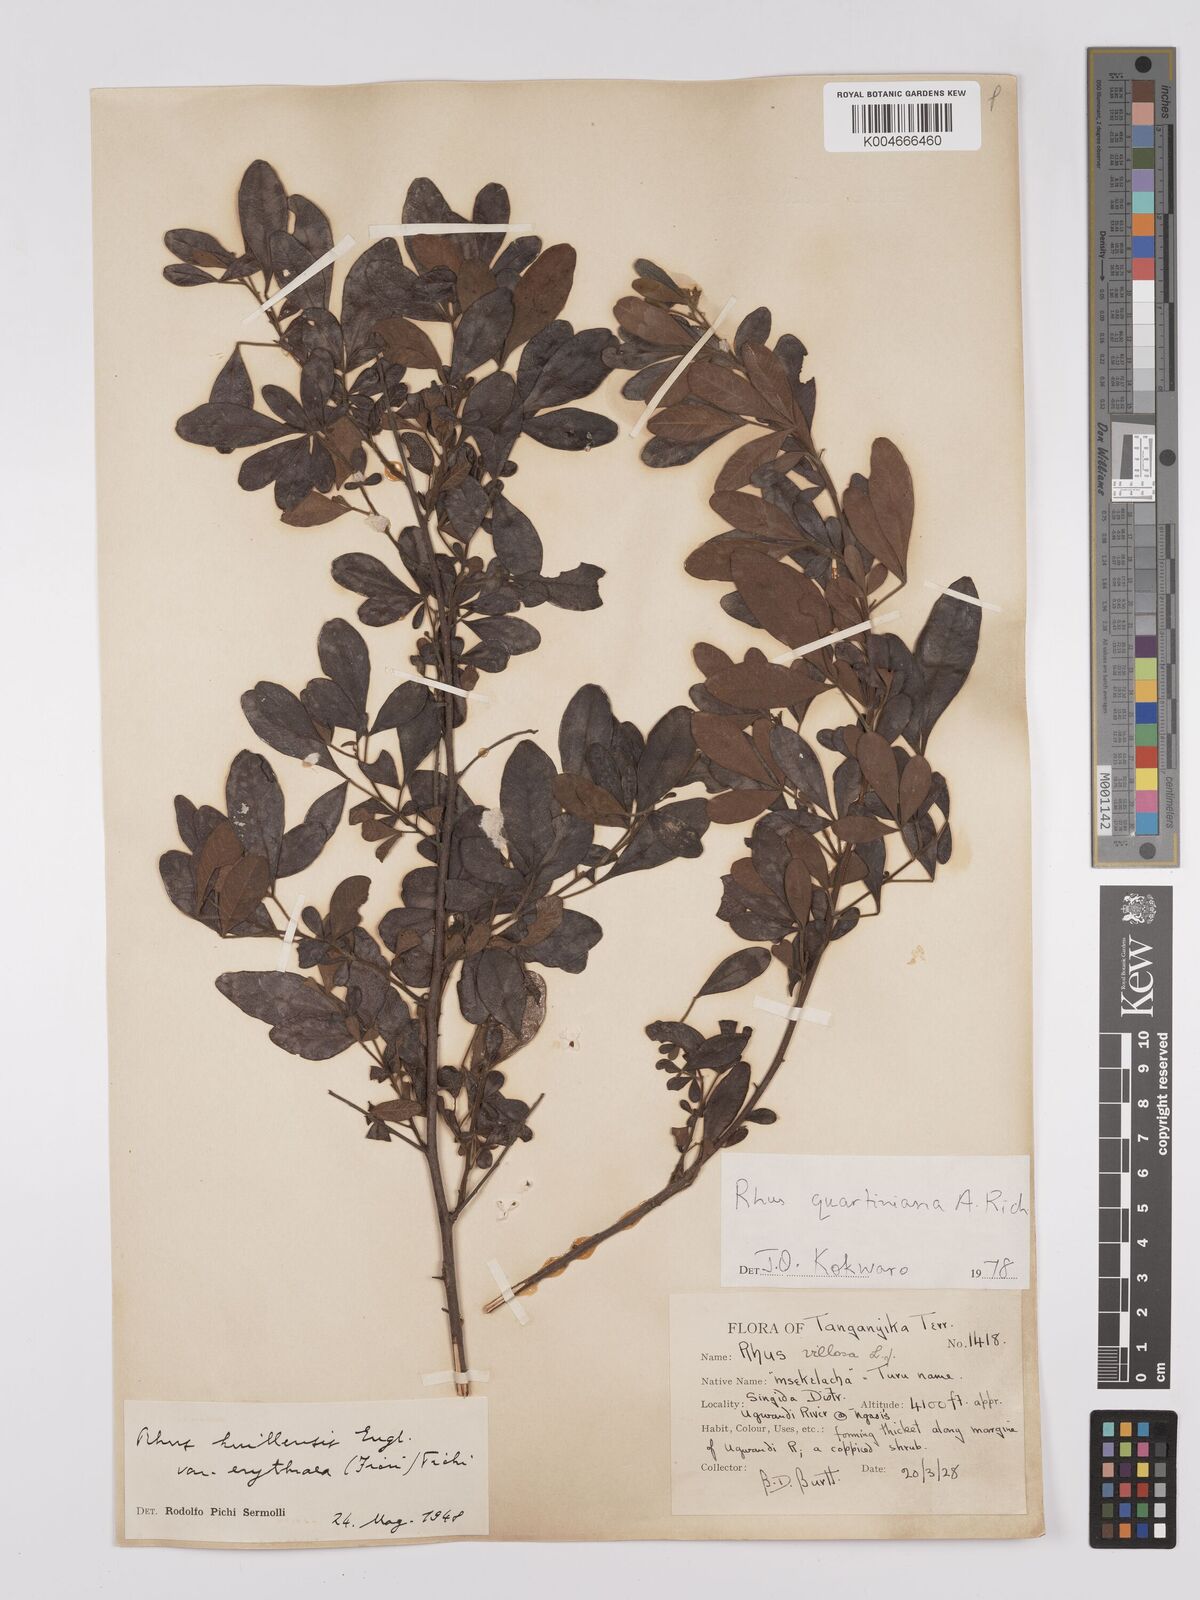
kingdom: Plantae
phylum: Tracheophyta
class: Magnoliopsida
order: Sapindales
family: Anacardiaceae
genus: Searsia
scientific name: Searsia quartiniana
